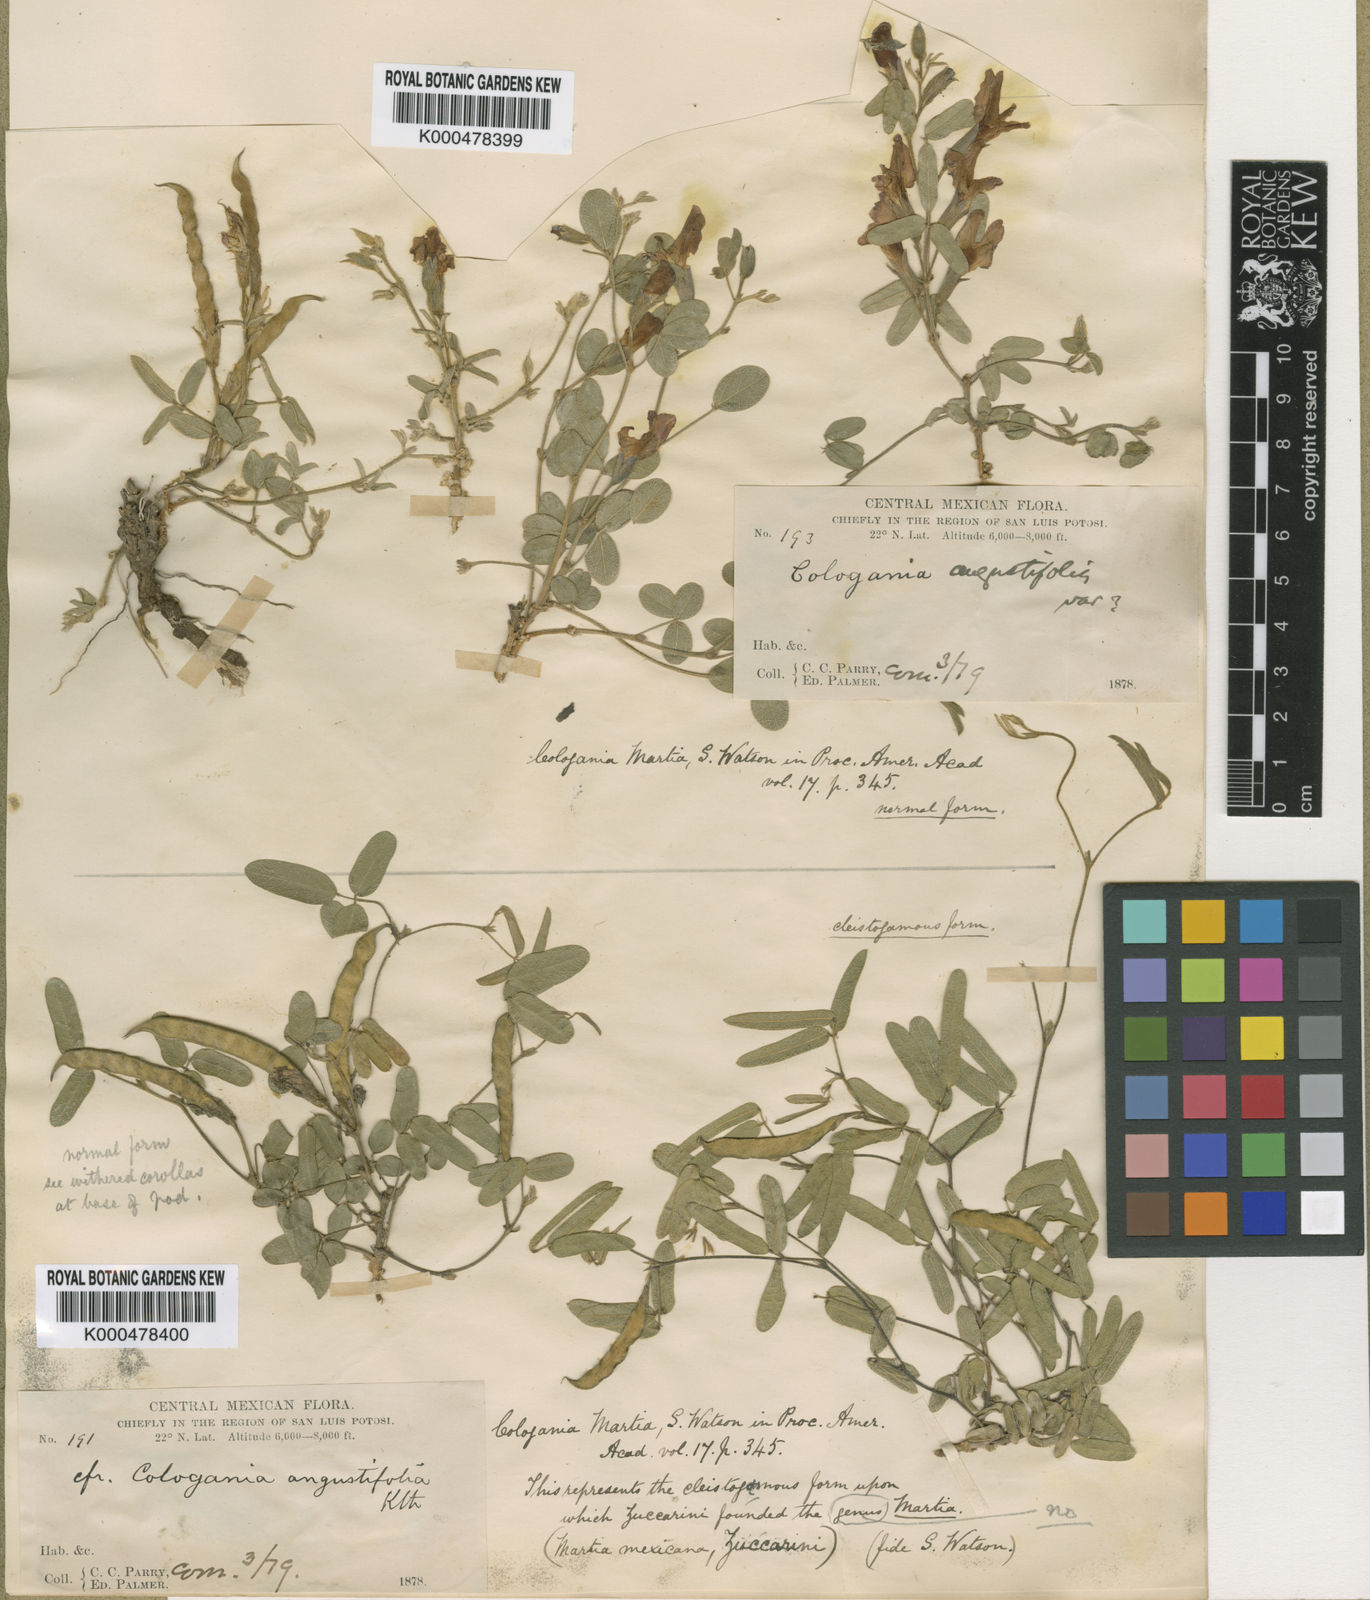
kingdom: Plantae
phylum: Tracheophyta
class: Magnoliopsida
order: Fabales
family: Fabaceae
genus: Cologania
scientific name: Cologania angustifolia
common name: Longleaf cologania
